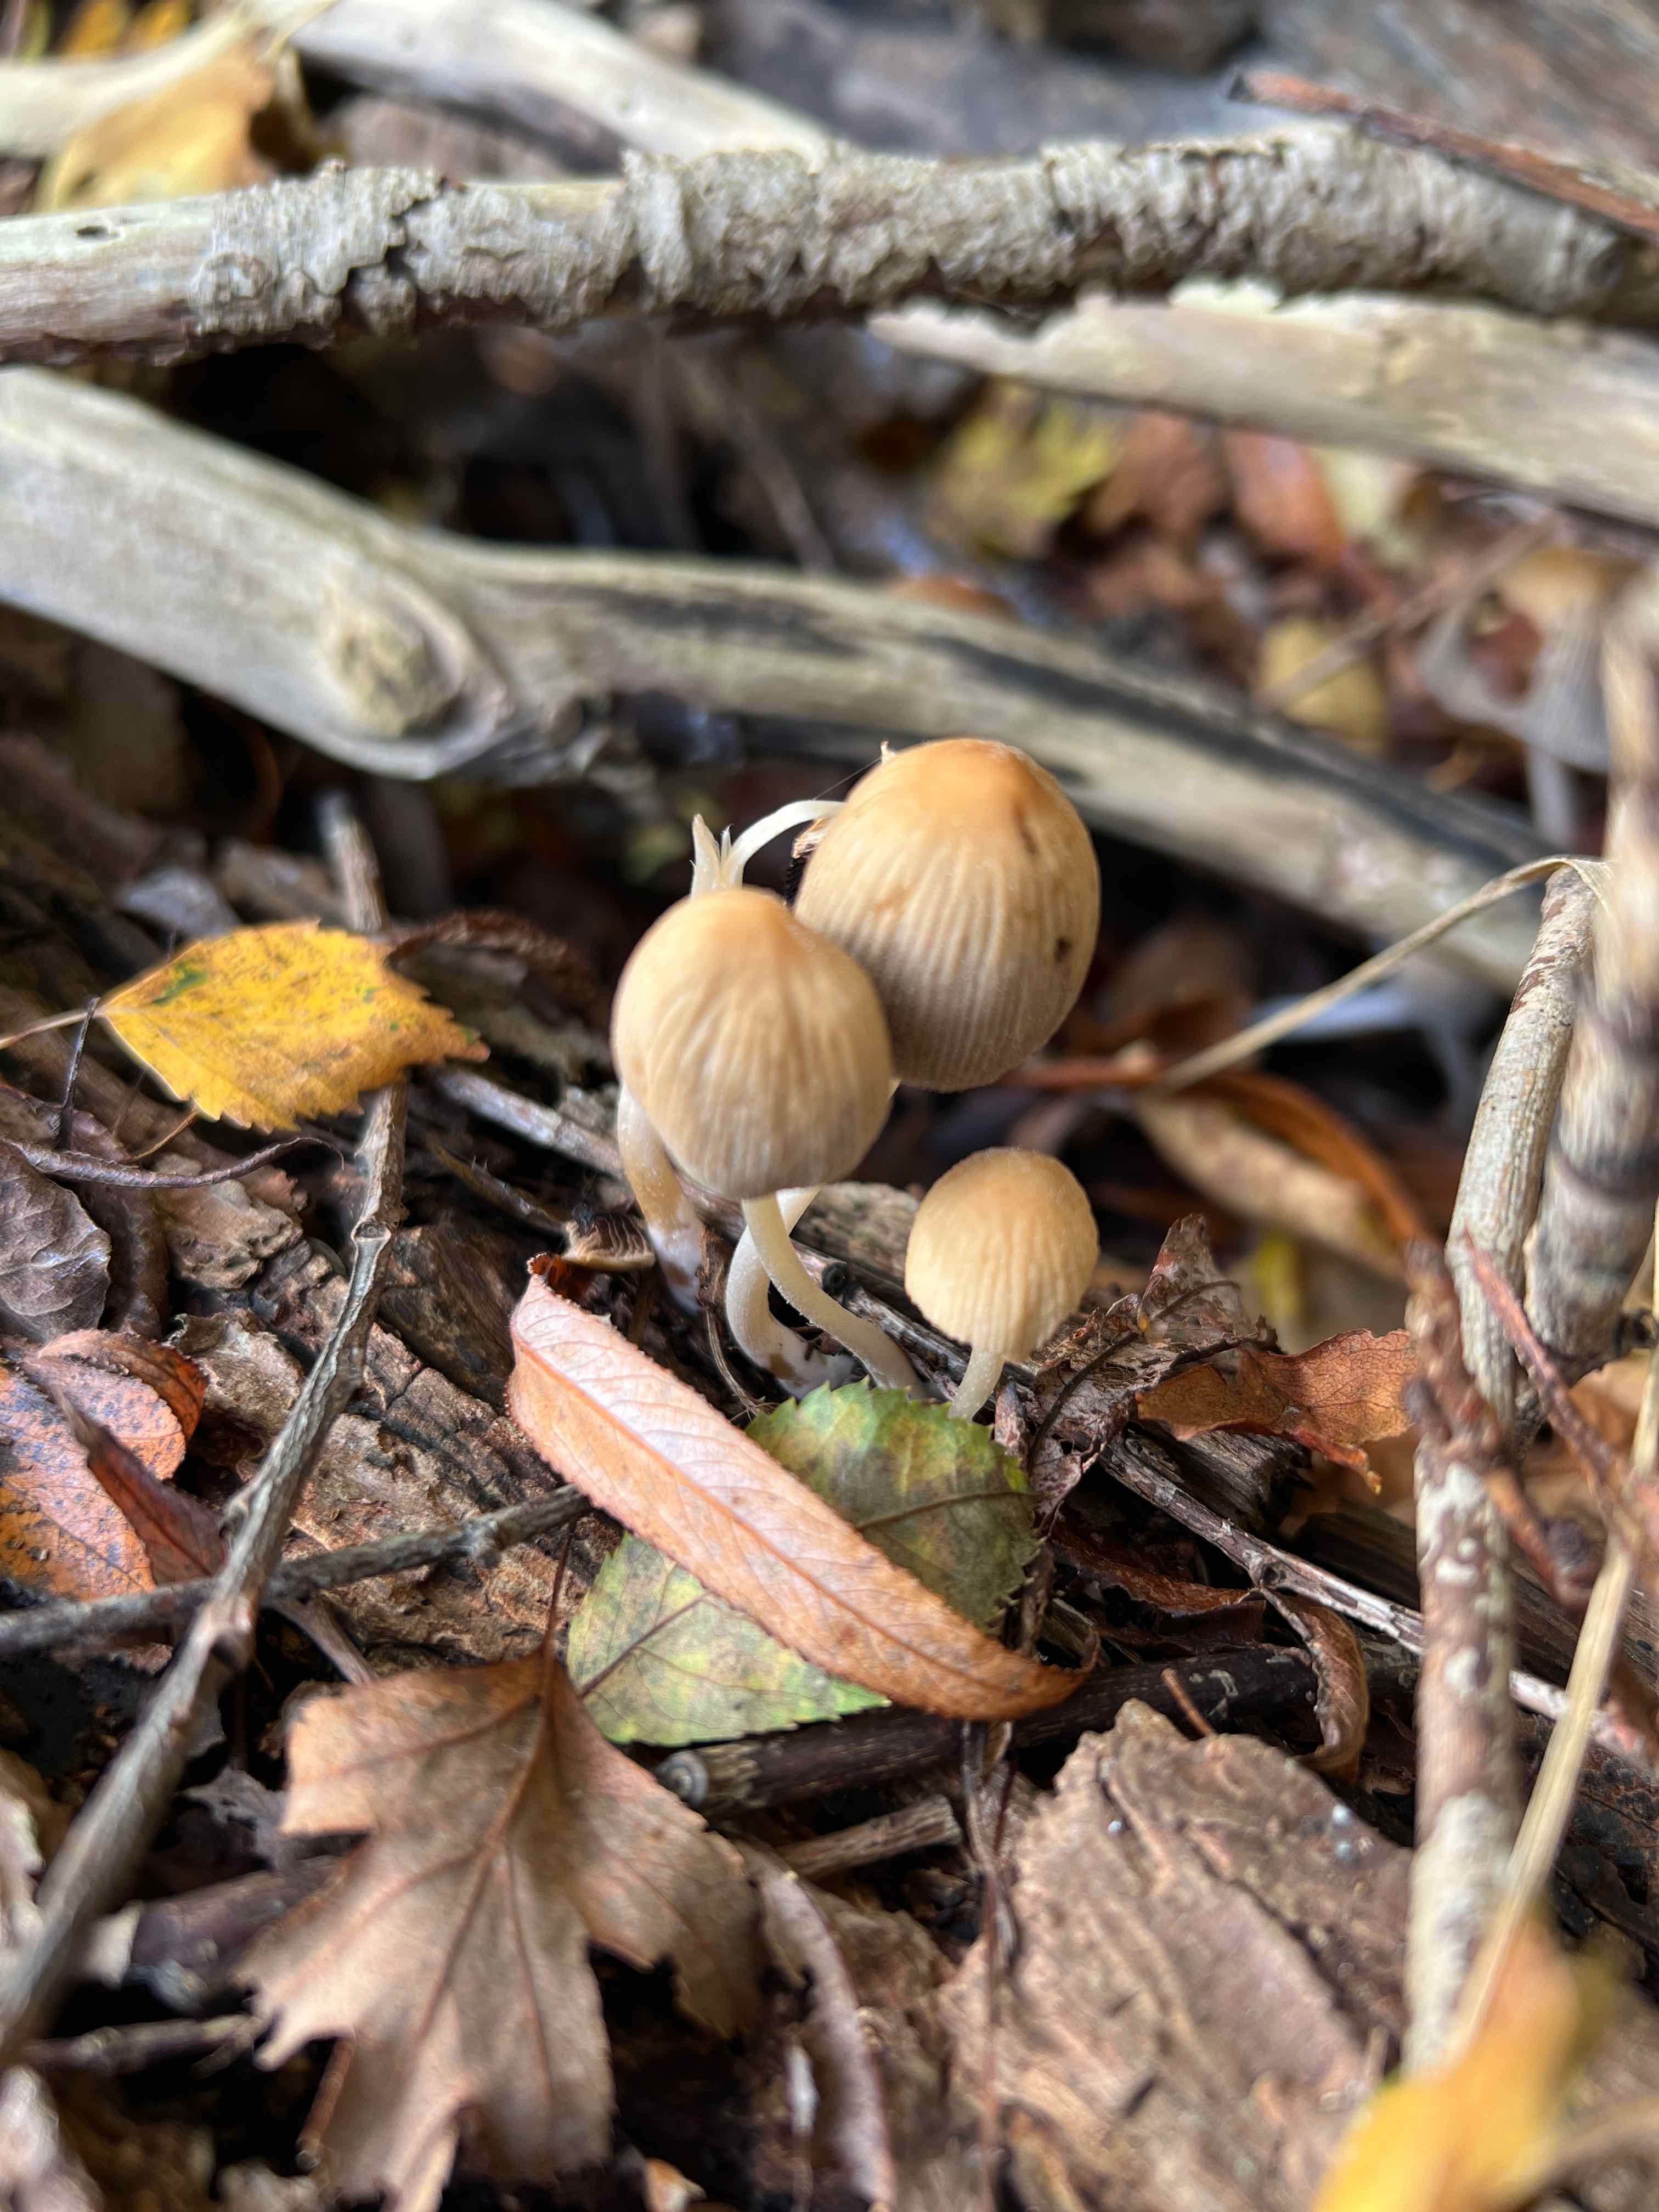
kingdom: Fungi
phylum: Basidiomycota
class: Agaricomycetes
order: Agaricales
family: Psathyrellaceae
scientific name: Psathyrellaceae
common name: mørkhatfamilien
